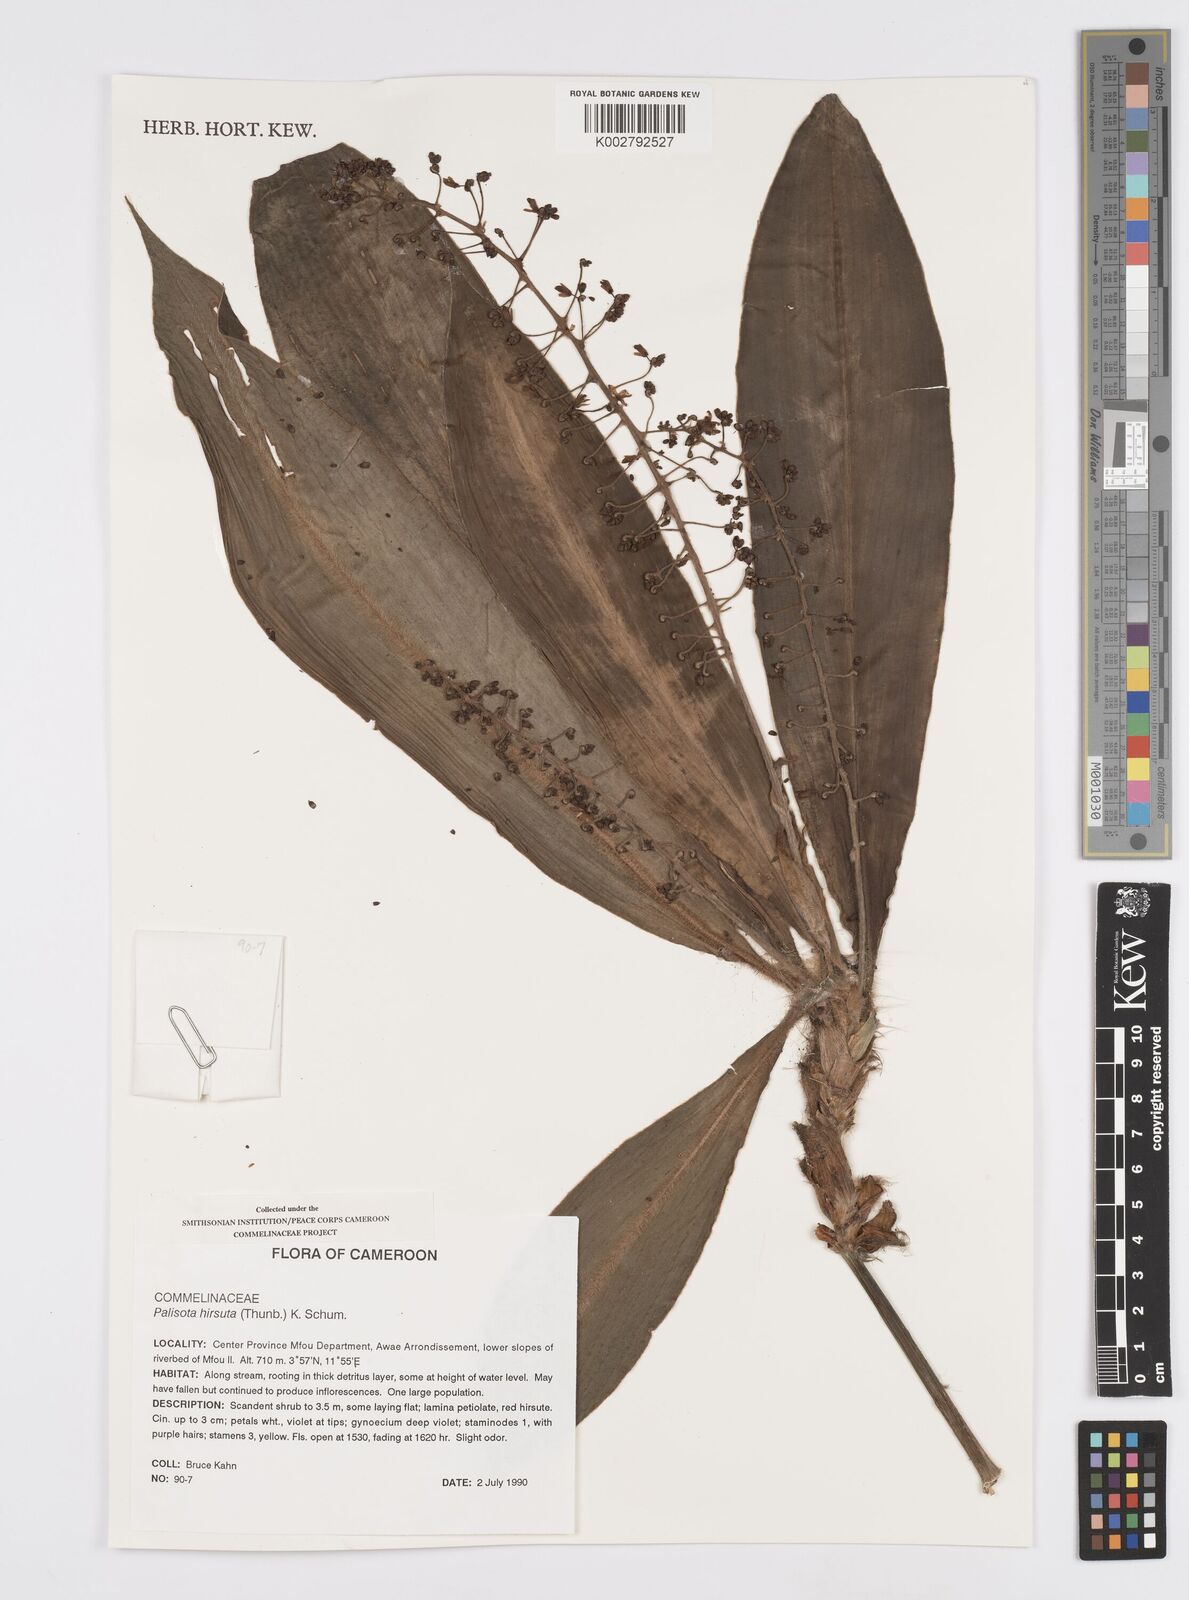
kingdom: Plantae
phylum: Tracheophyta
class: Liliopsida
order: Commelinales
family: Commelinaceae
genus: Palisota
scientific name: Palisota hirsuta
